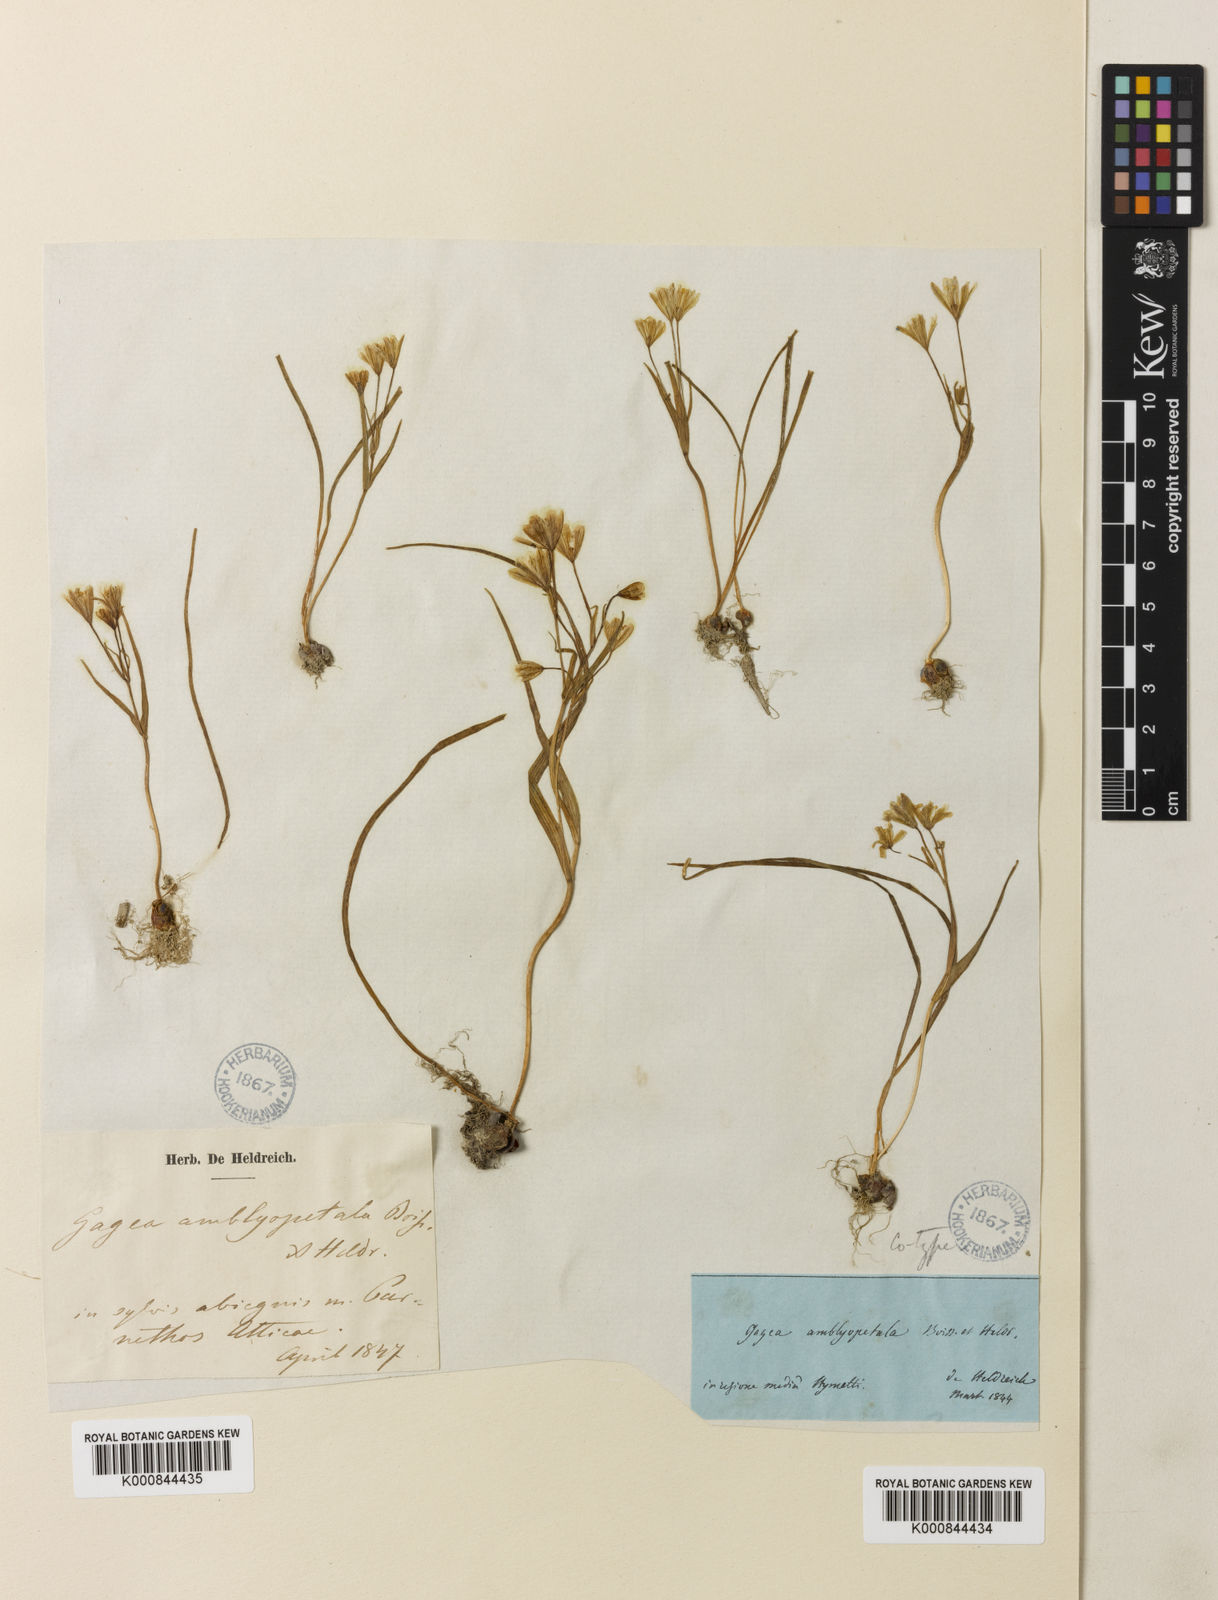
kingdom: Plantae
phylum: Tracheophyta
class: Liliopsida
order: Liliales
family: Liliaceae
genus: Gagea
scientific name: Gagea amblyopetala
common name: Blunt-flowered gagea
